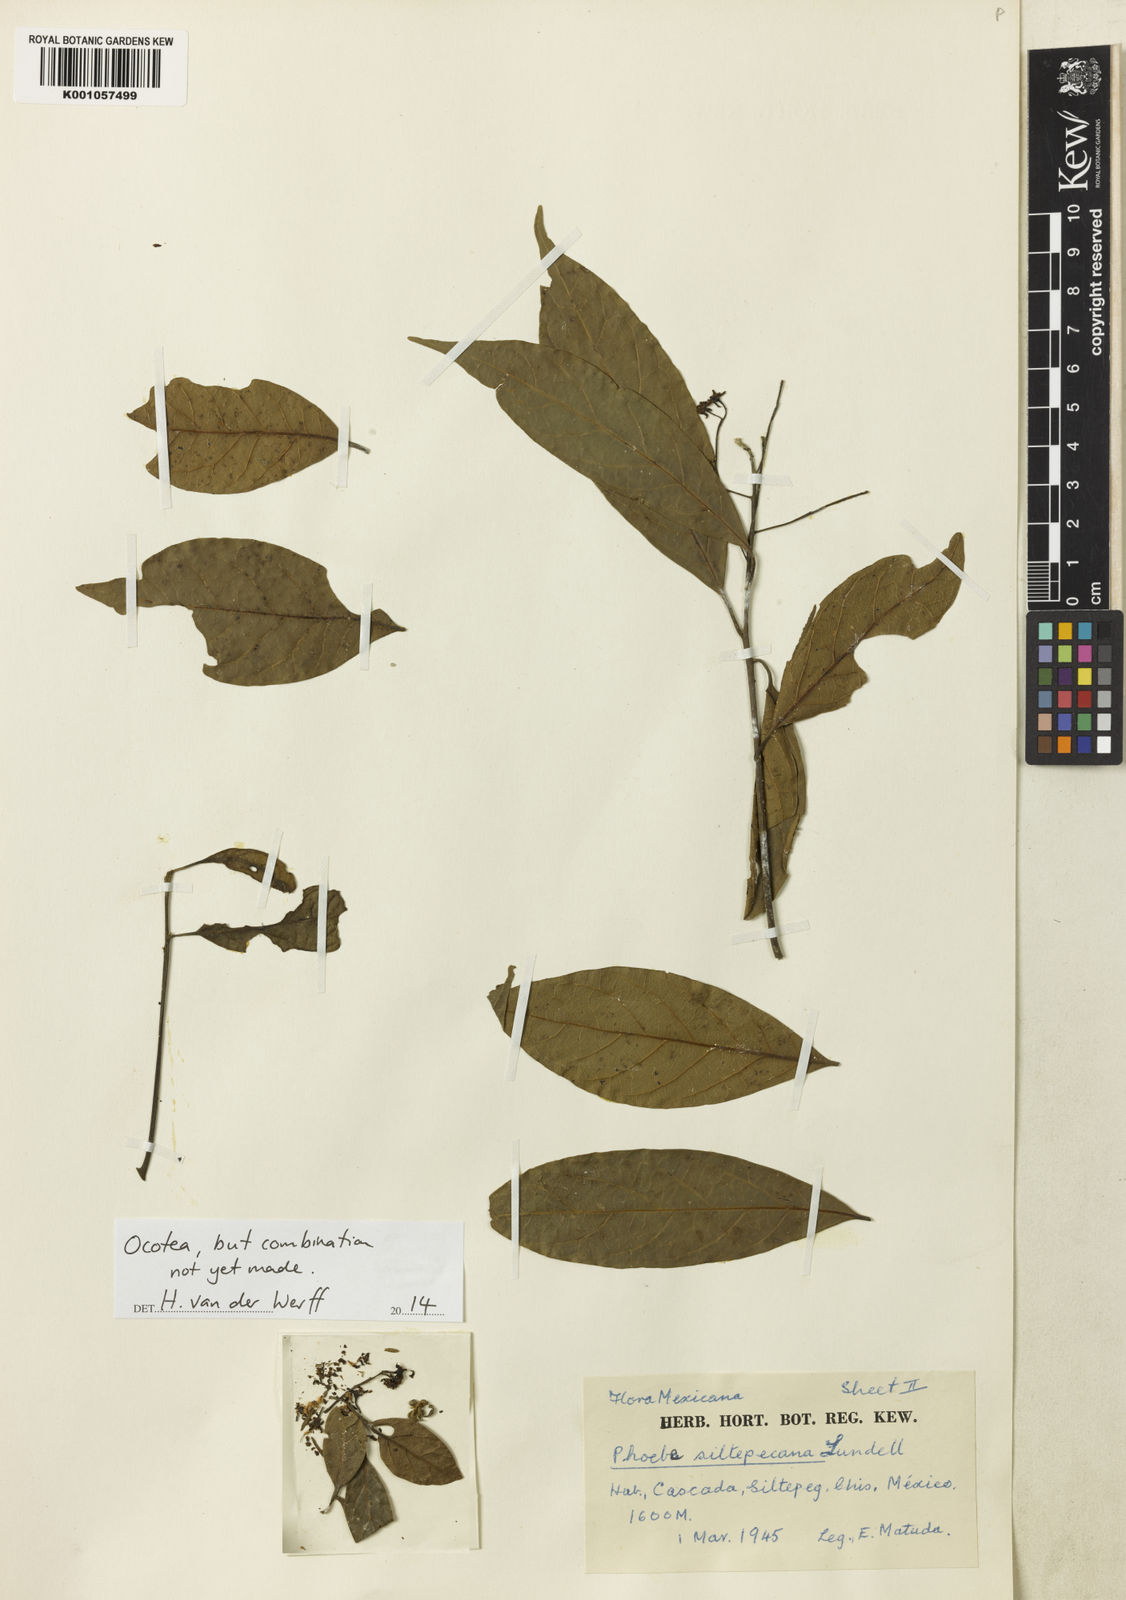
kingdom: Plantae
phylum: Tracheophyta
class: Magnoliopsida
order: Laurales
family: Lauraceae
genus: Ocotea
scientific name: Ocotea
